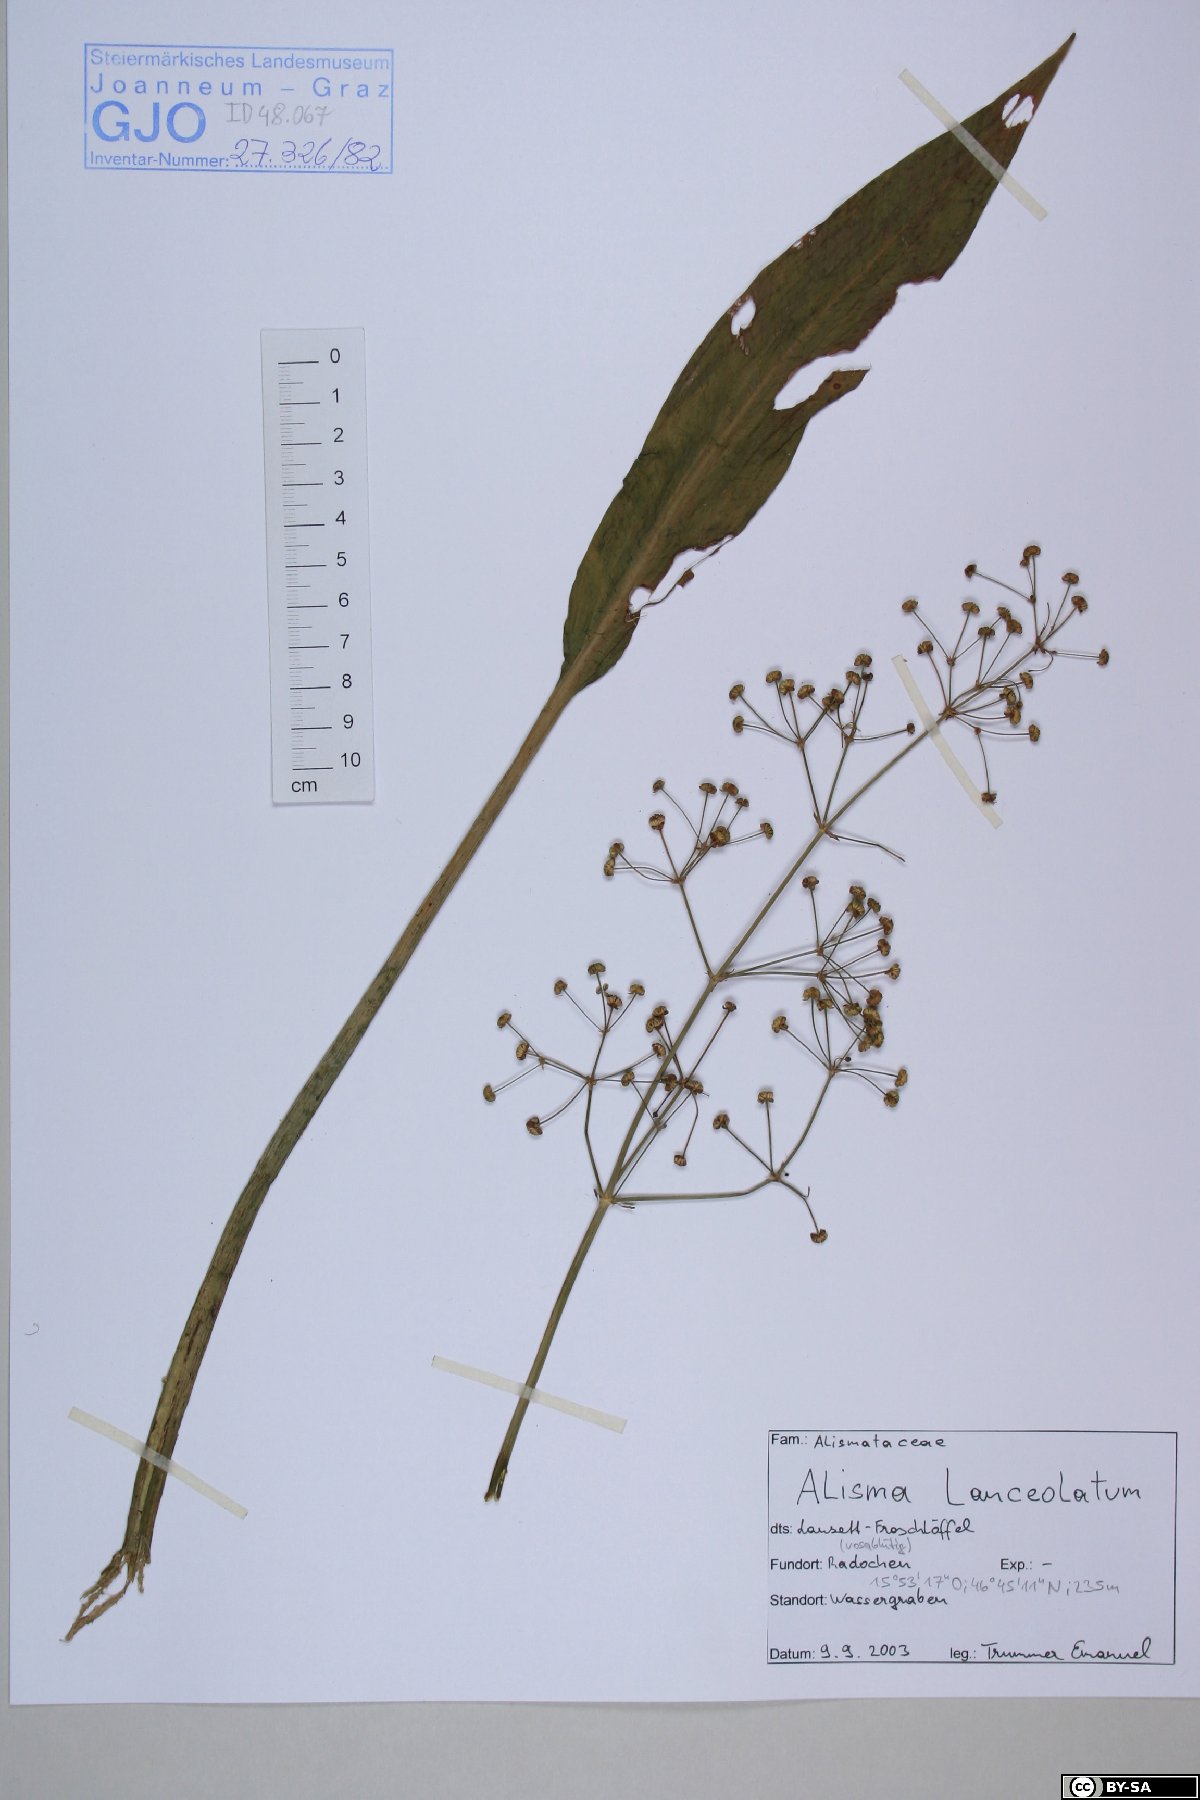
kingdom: Plantae
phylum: Tracheophyta
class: Liliopsida
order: Alismatales
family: Alismataceae
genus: Alisma
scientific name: Alisma lanceolatum
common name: Narrow-leaved water-plantain
